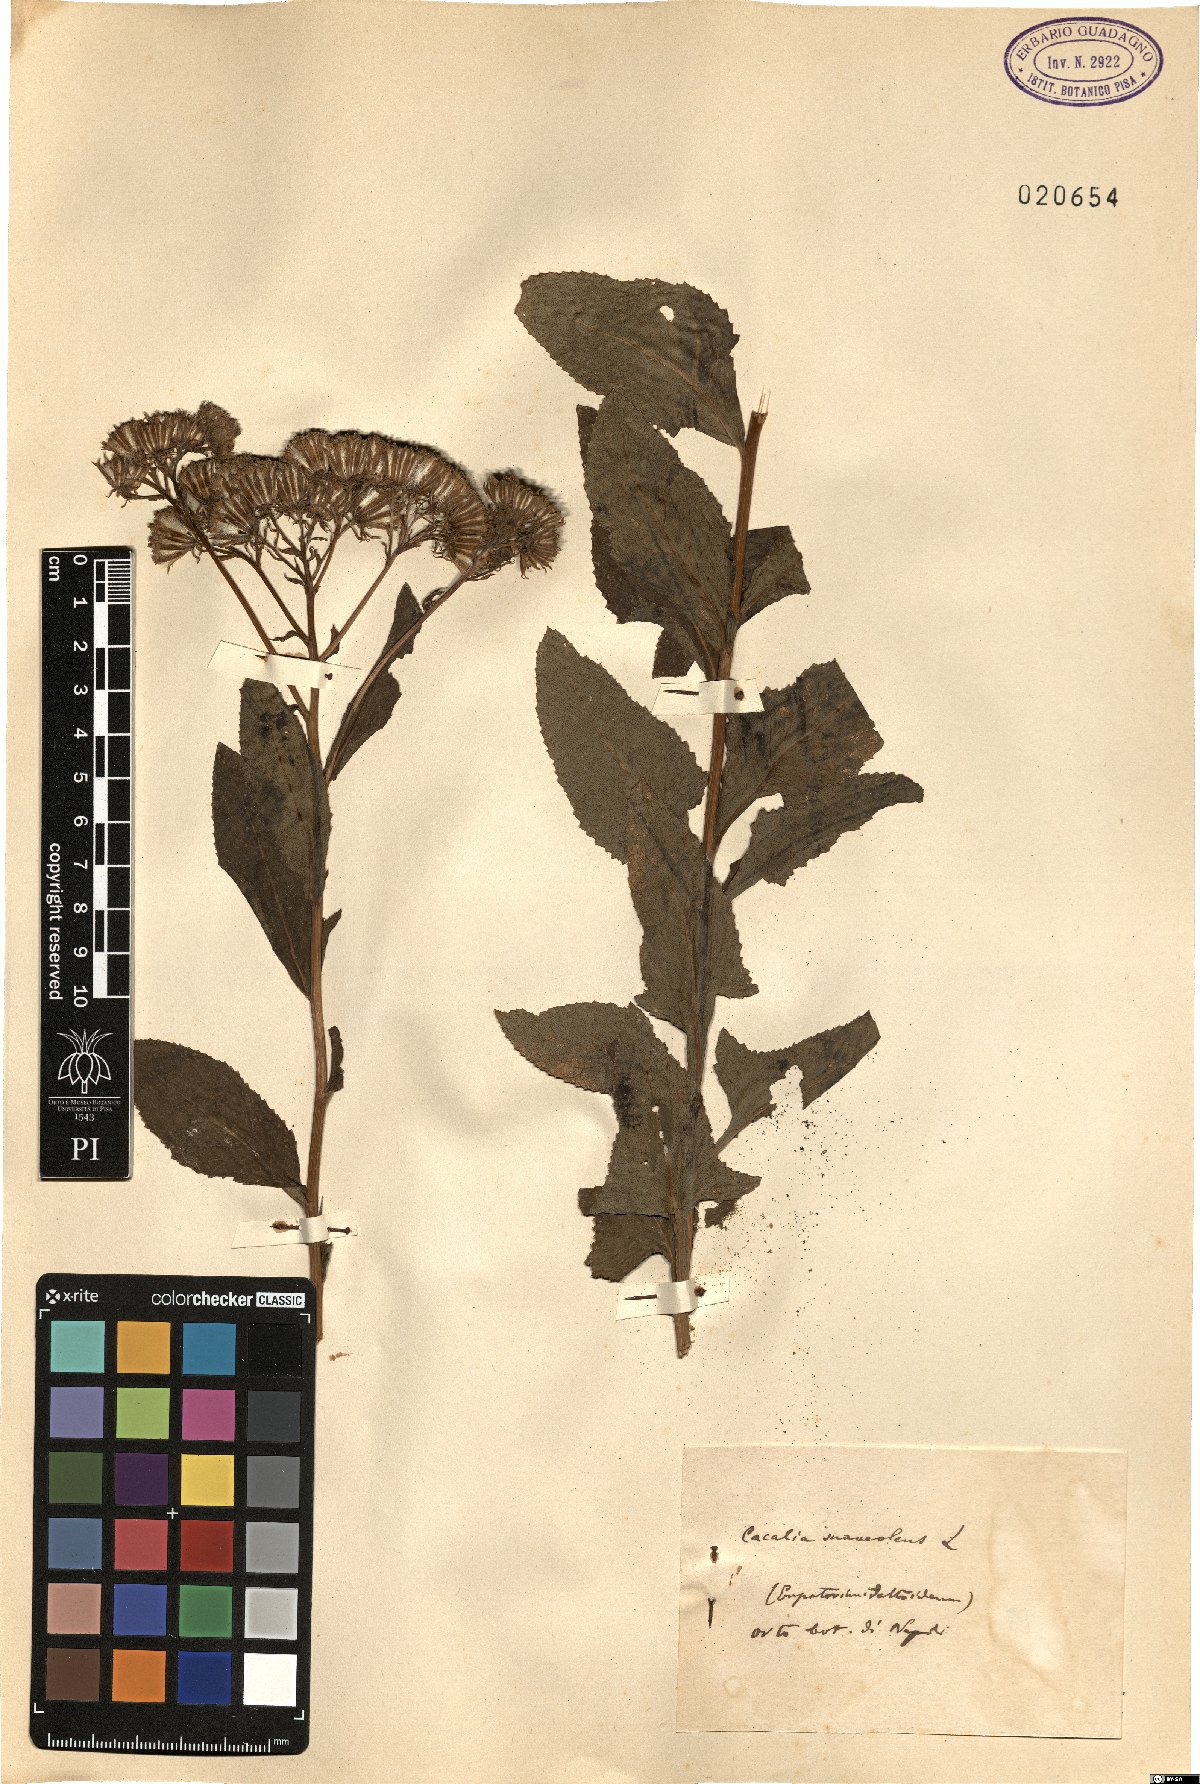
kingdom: Plantae
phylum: Tracheophyta
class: Magnoliopsida
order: Asterales
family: Asteraceae
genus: Hasteola
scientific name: Hasteola suaveolens
